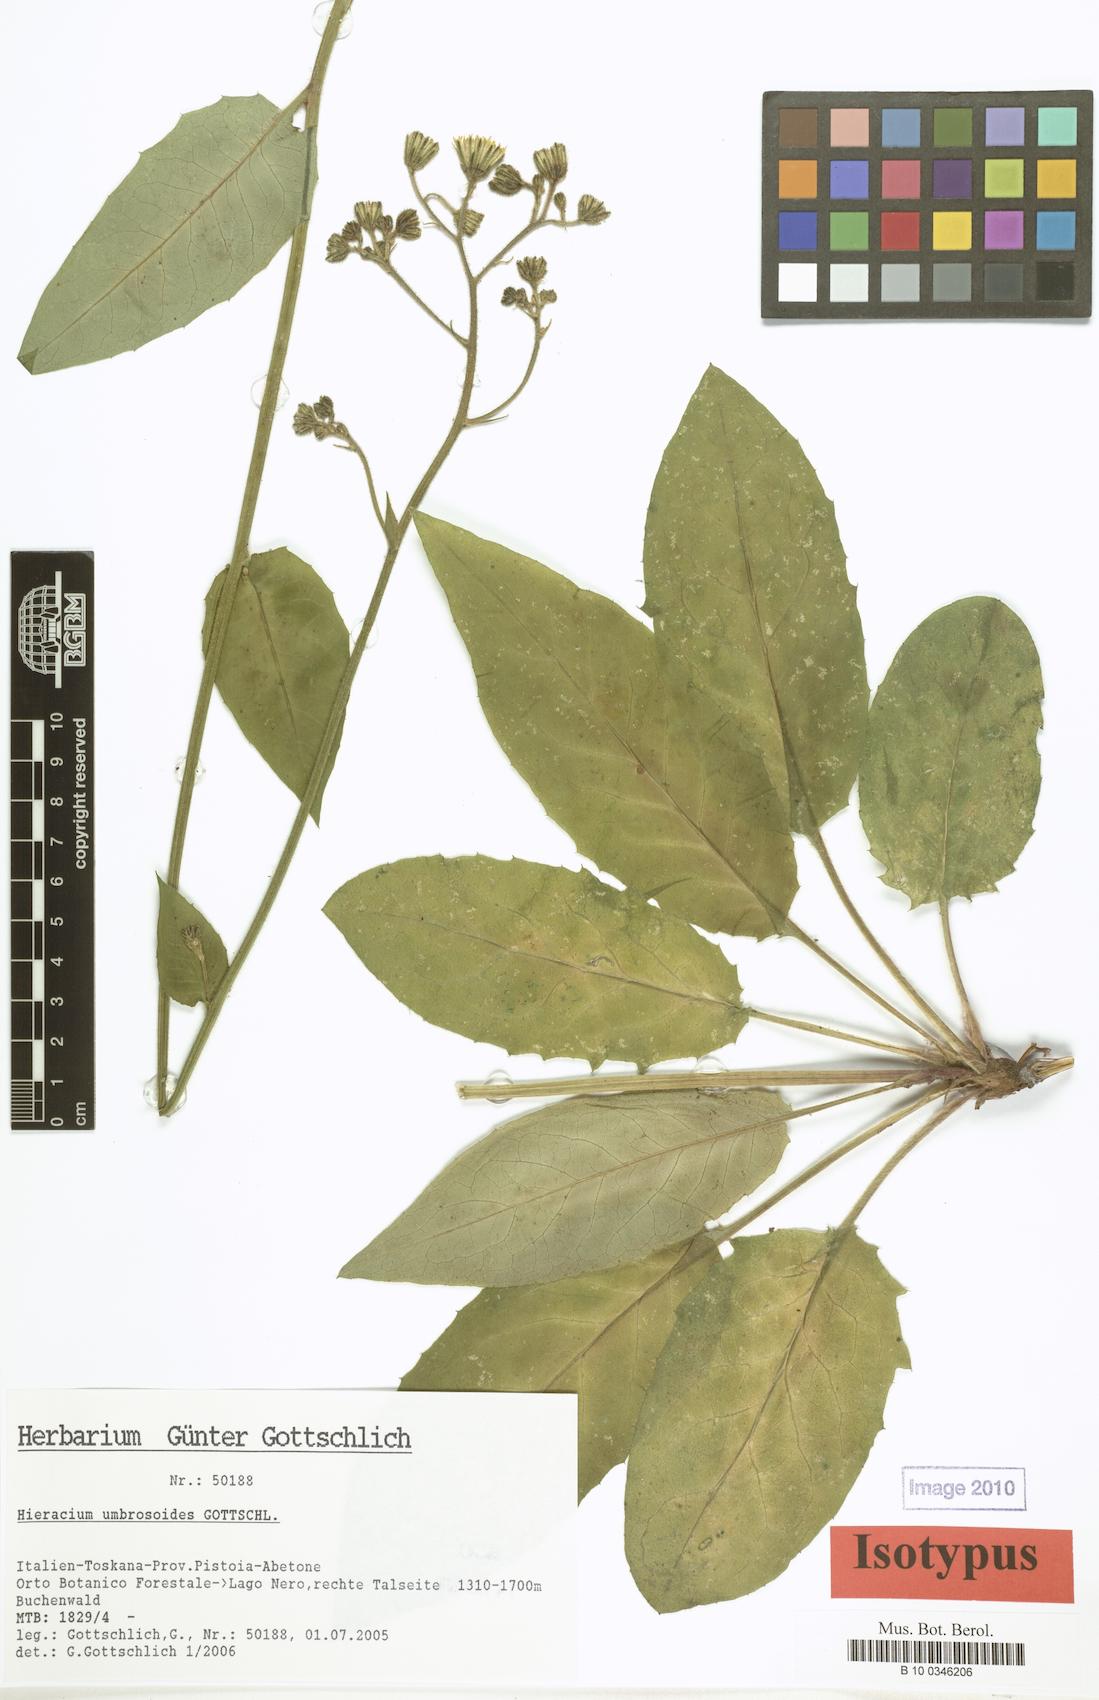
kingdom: Plantae
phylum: Tracheophyta
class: Magnoliopsida
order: Asterales
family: Asteraceae
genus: Hieracium
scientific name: Hieracium umbrosoides
